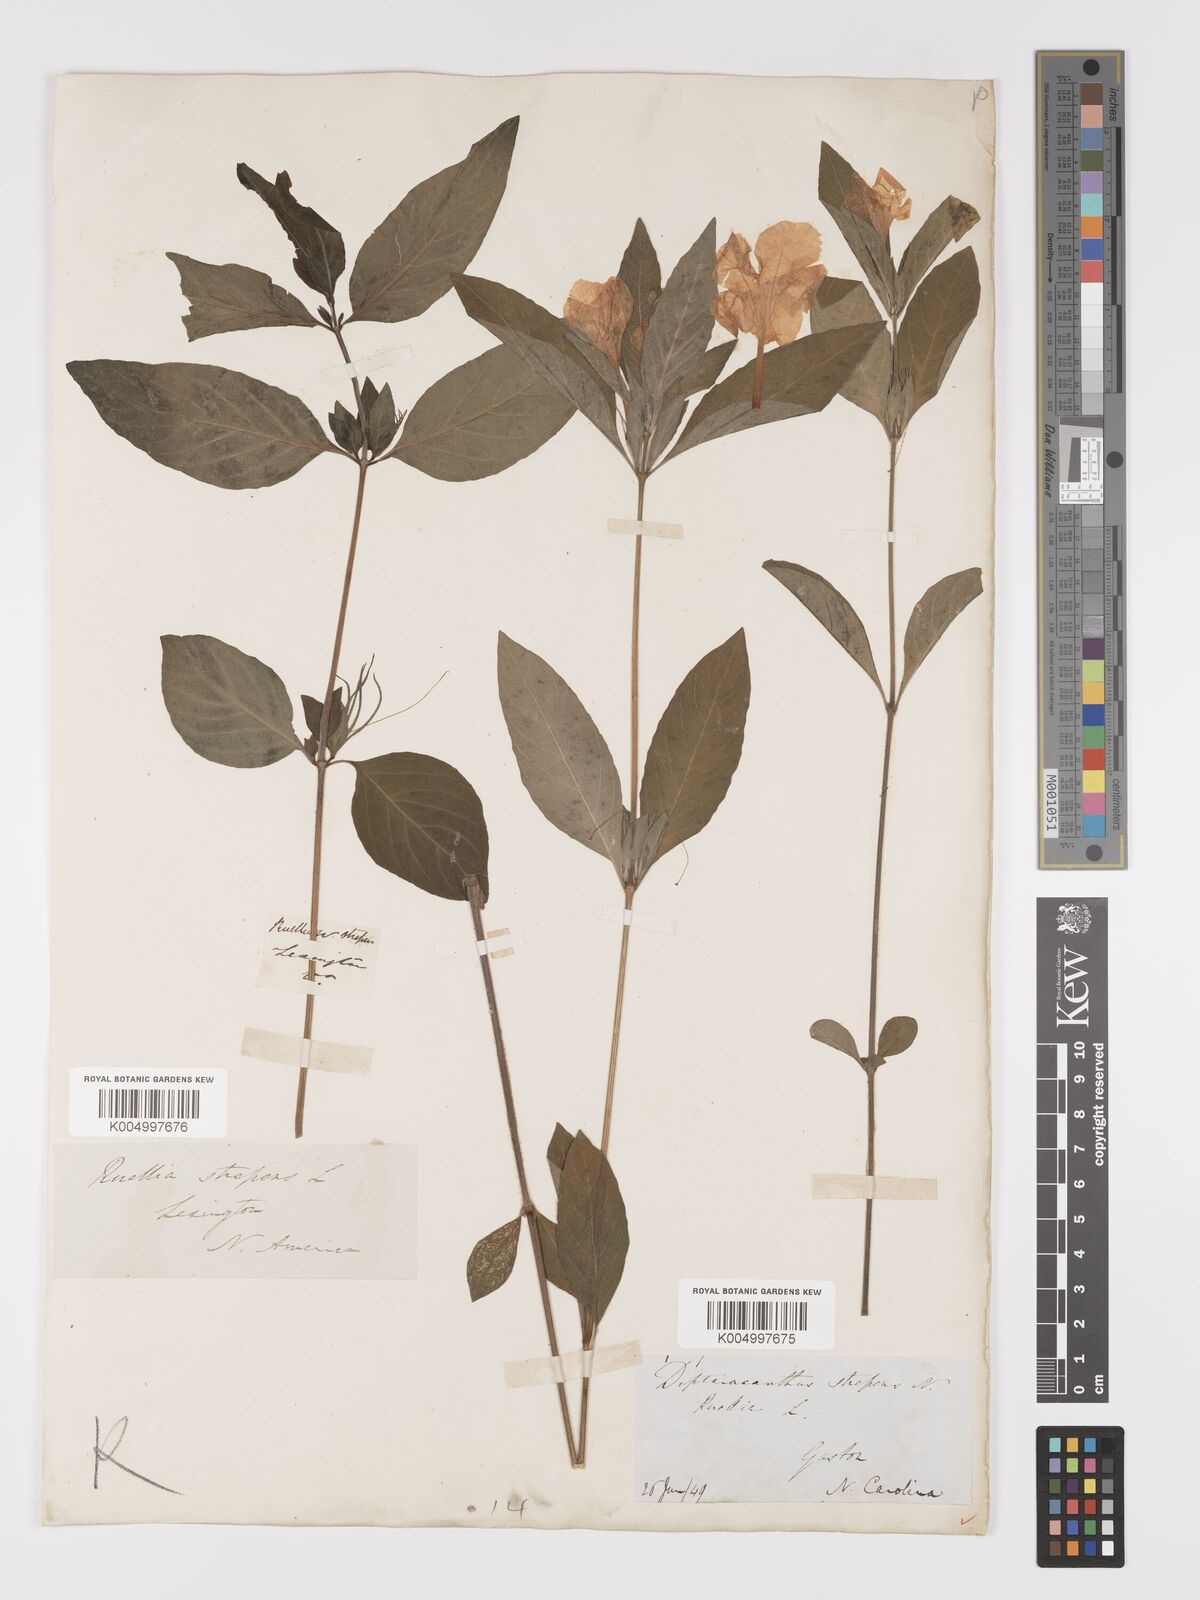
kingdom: Plantae
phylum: Tracheophyta
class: Magnoliopsida
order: Lamiales
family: Acanthaceae
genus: Ruellia
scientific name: Ruellia strepens
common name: Limestone wild petunia
